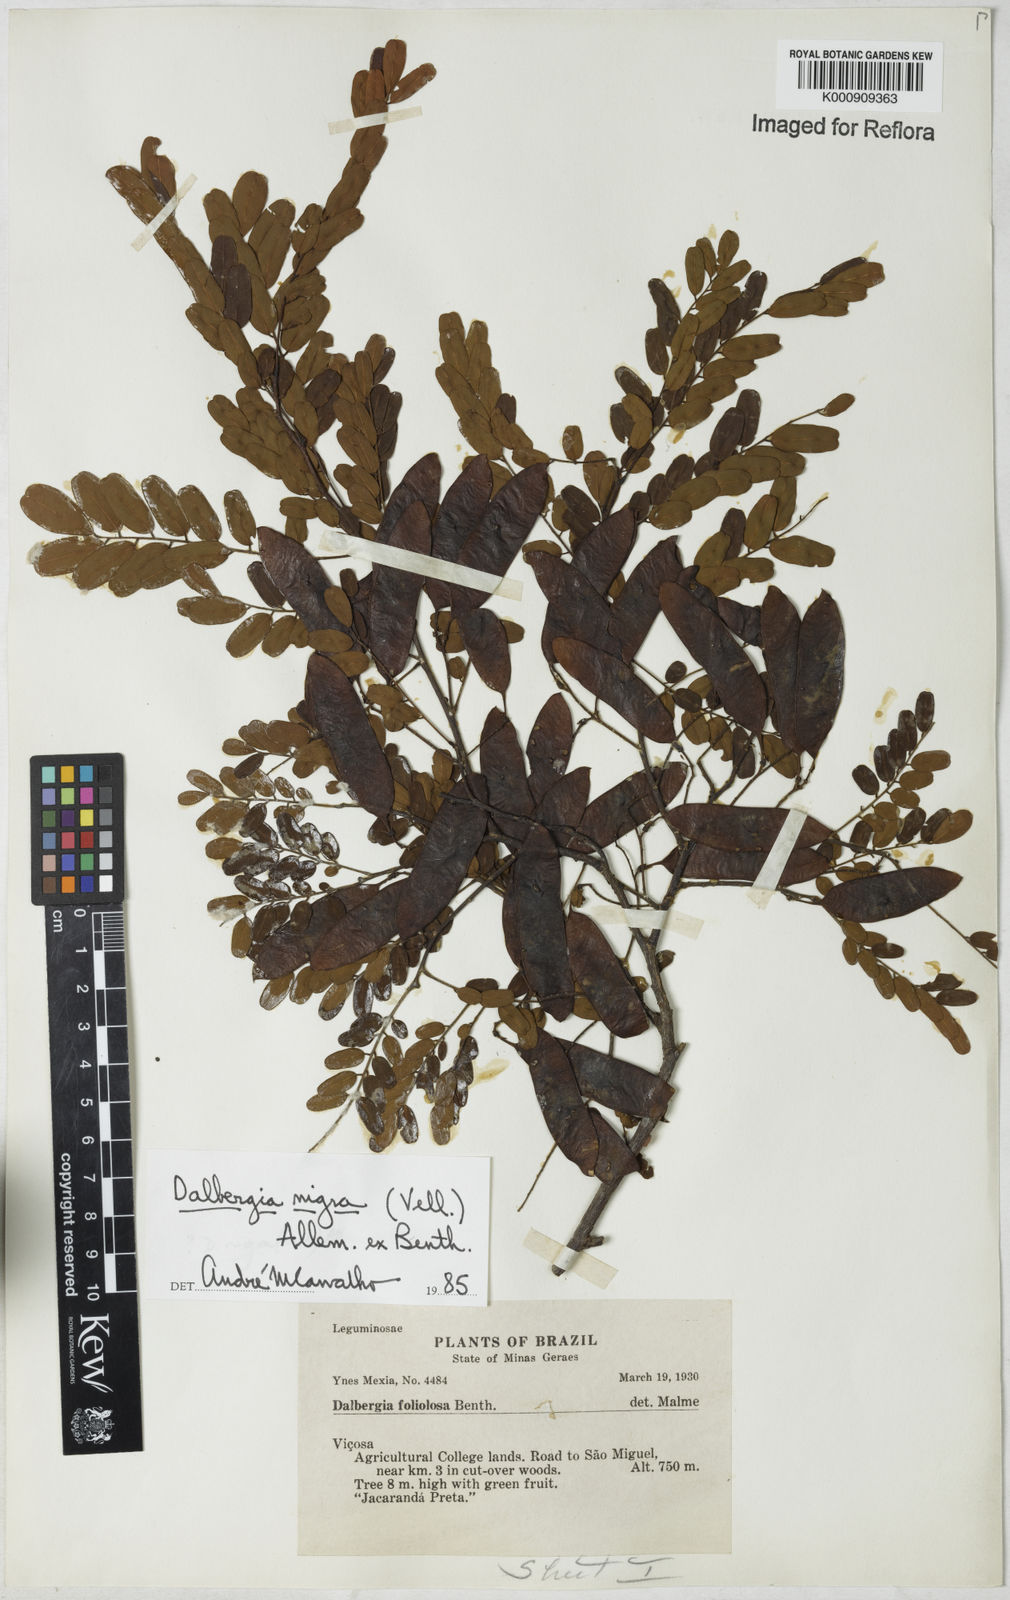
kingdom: Plantae
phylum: Tracheophyta
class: Magnoliopsida
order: Fabales
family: Fabaceae
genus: Dalbergia
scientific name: Dalbergia
